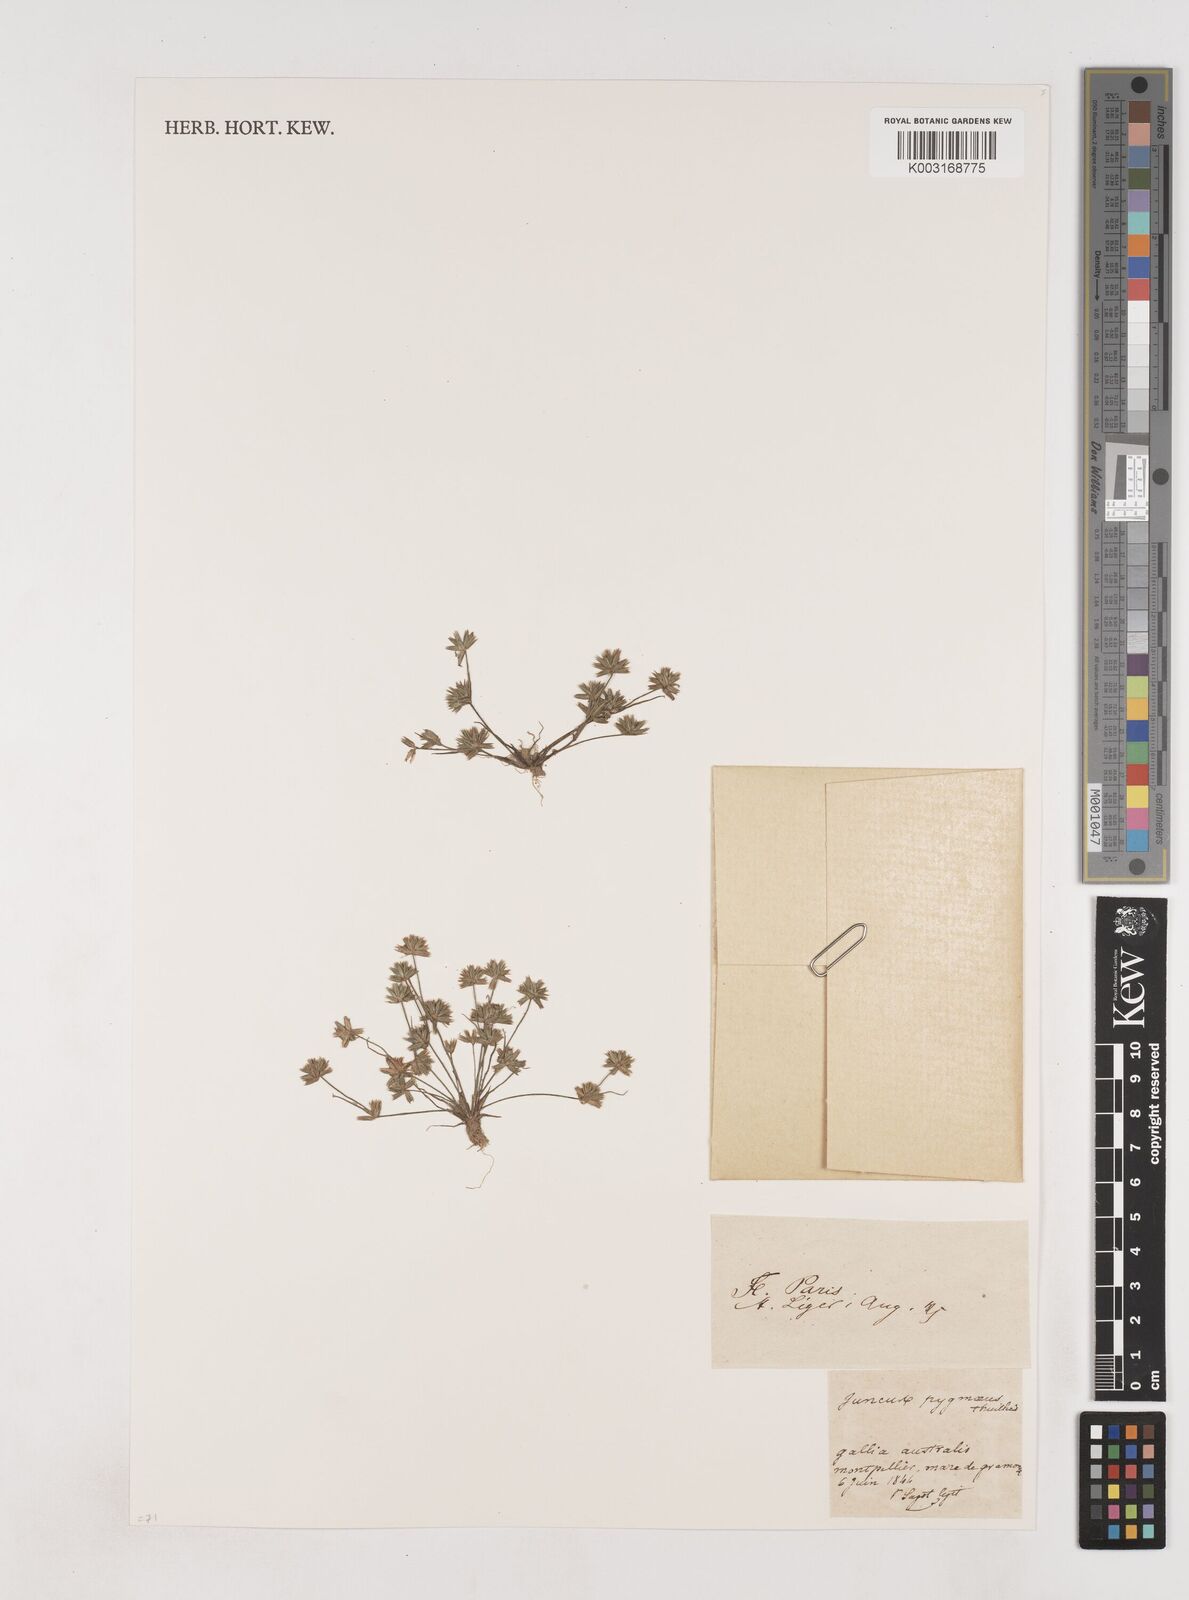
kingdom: Plantae
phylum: Tracheophyta
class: Liliopsida
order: Poales
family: Juncaceae
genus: Juncus
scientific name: Juncus pygmaeus
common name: Pigmy rush
